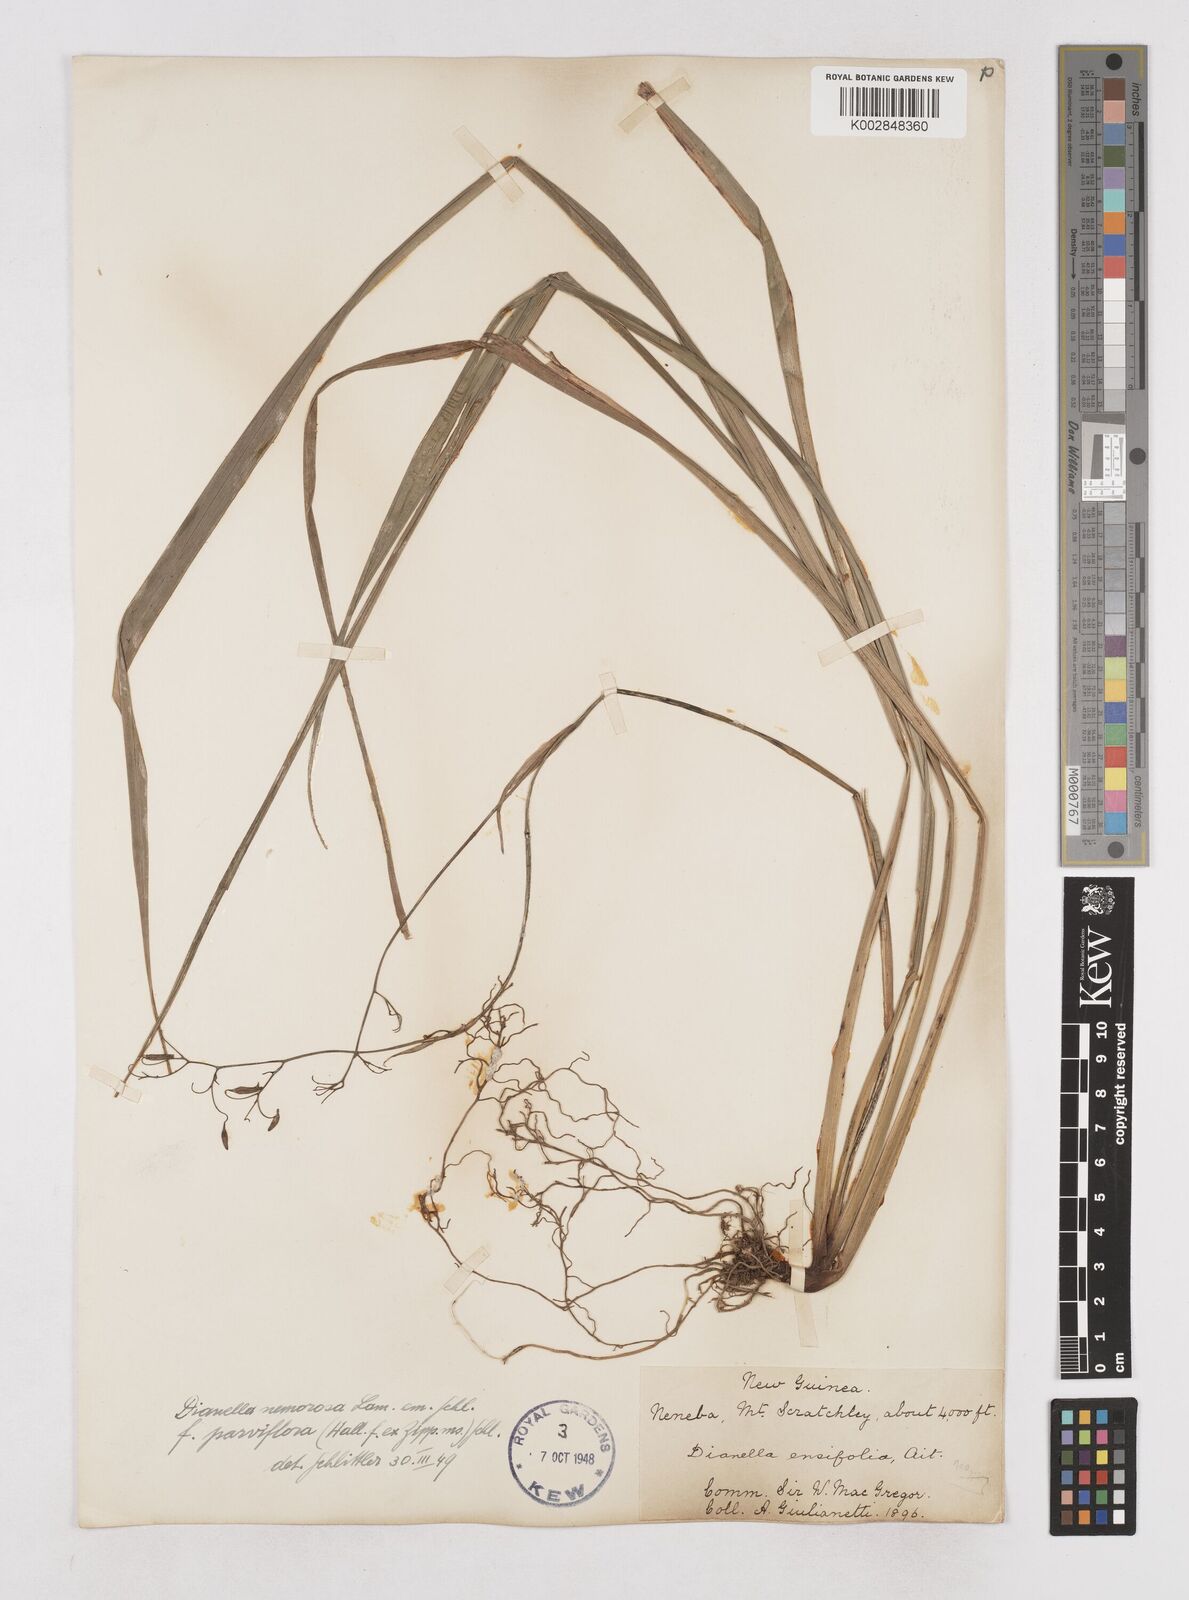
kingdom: Plantae
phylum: Tracheophyta
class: Liliopsida
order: Asparagales
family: Asphodelaceae
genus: Dianella
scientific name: Dianella ensifolia
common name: New zealand lilyplant
